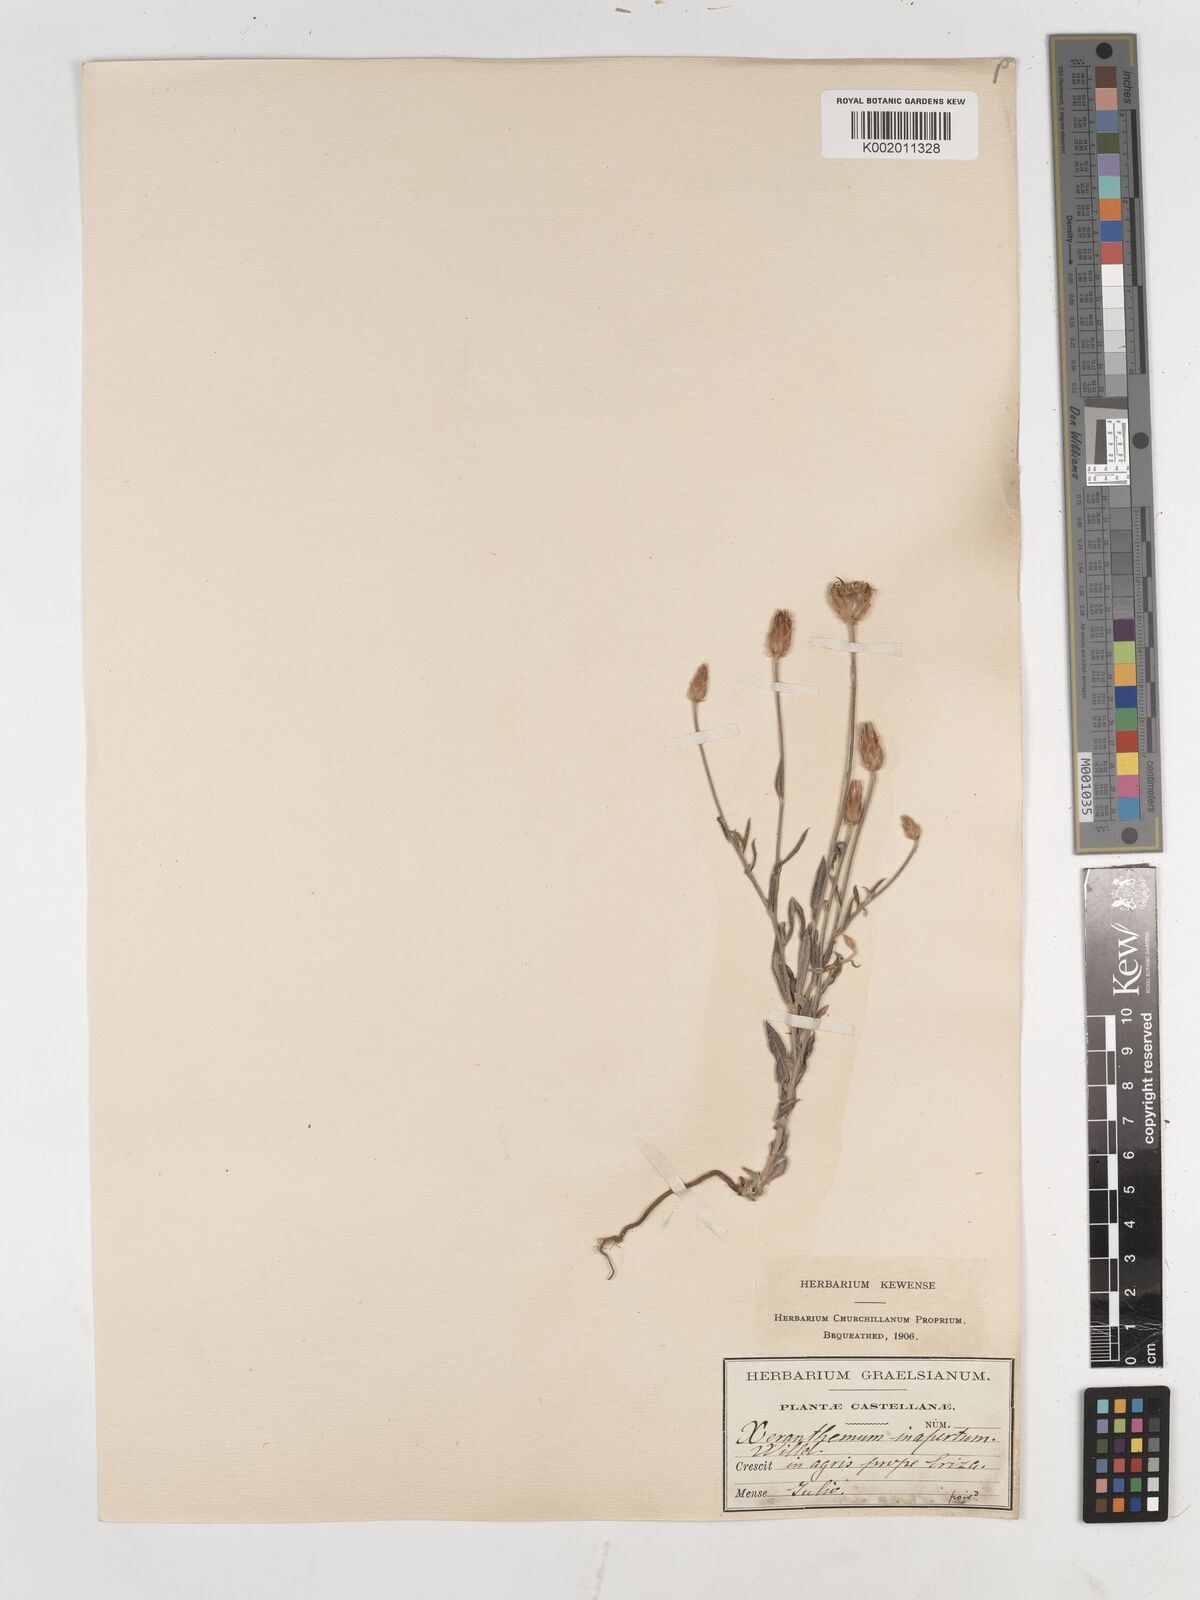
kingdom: Plantae
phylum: Tracheophyta
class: Magnoliopsida
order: Asterales
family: Asteraceae
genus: Xeranthemum
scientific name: Xeranthemum inapertum
